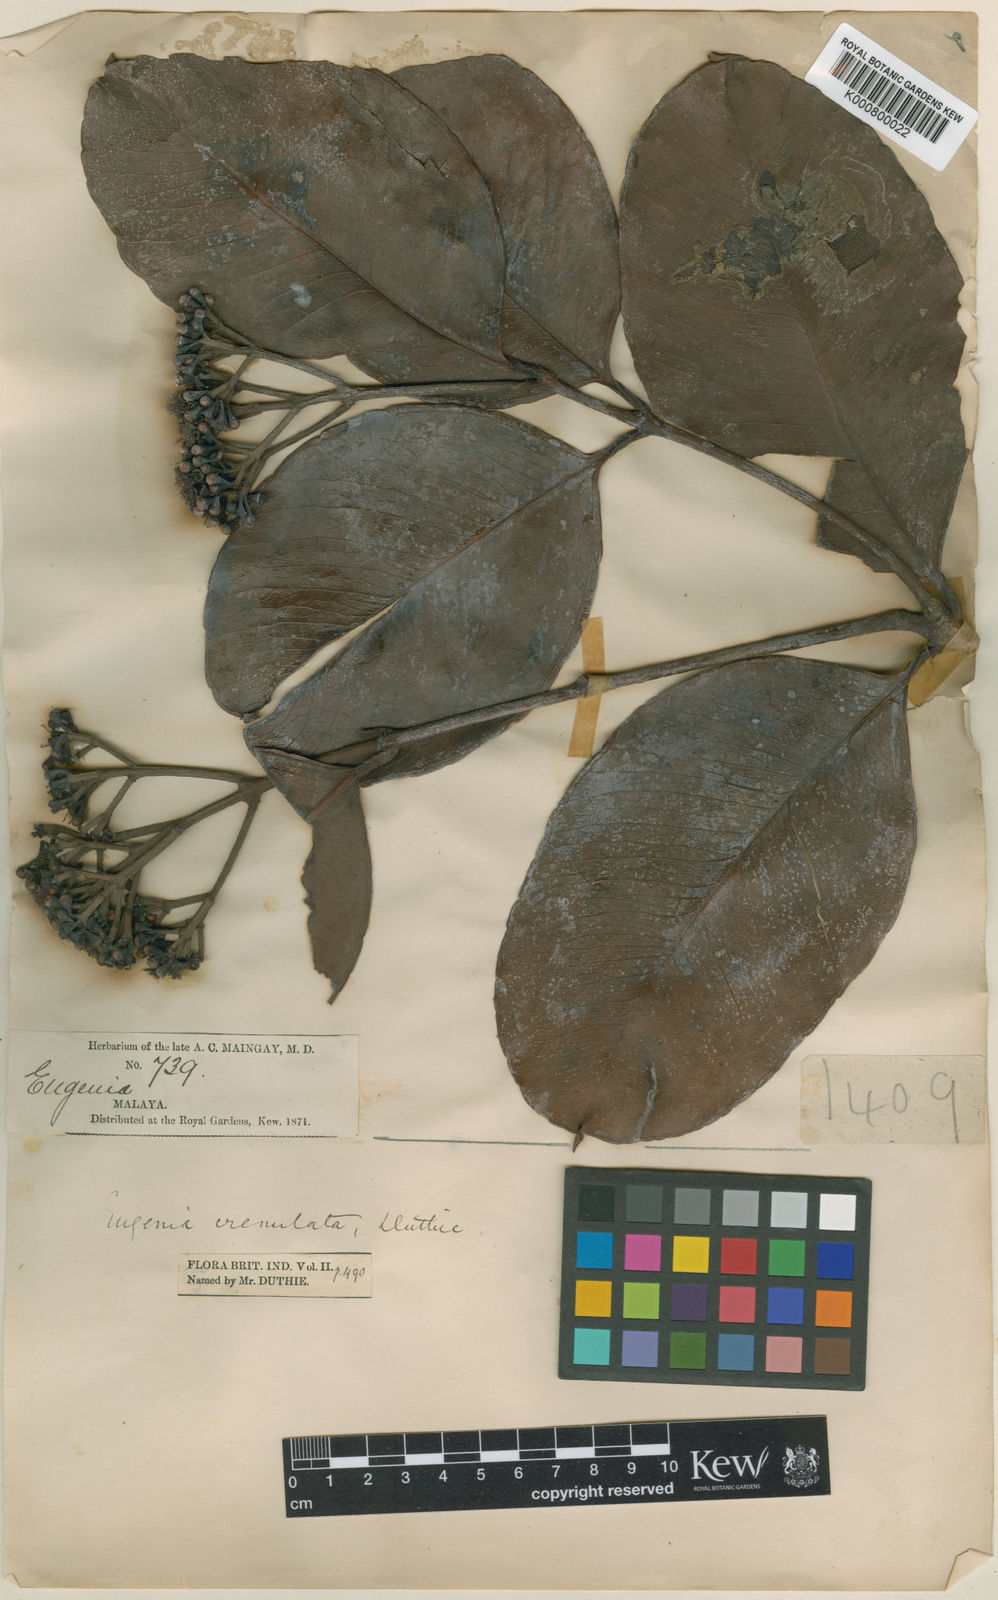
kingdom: Plantae
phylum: Tracheophyta
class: Magnoliopsida
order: Myrtales
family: Myrtaceae
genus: Syzygium
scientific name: Syzygium subcrenatum
